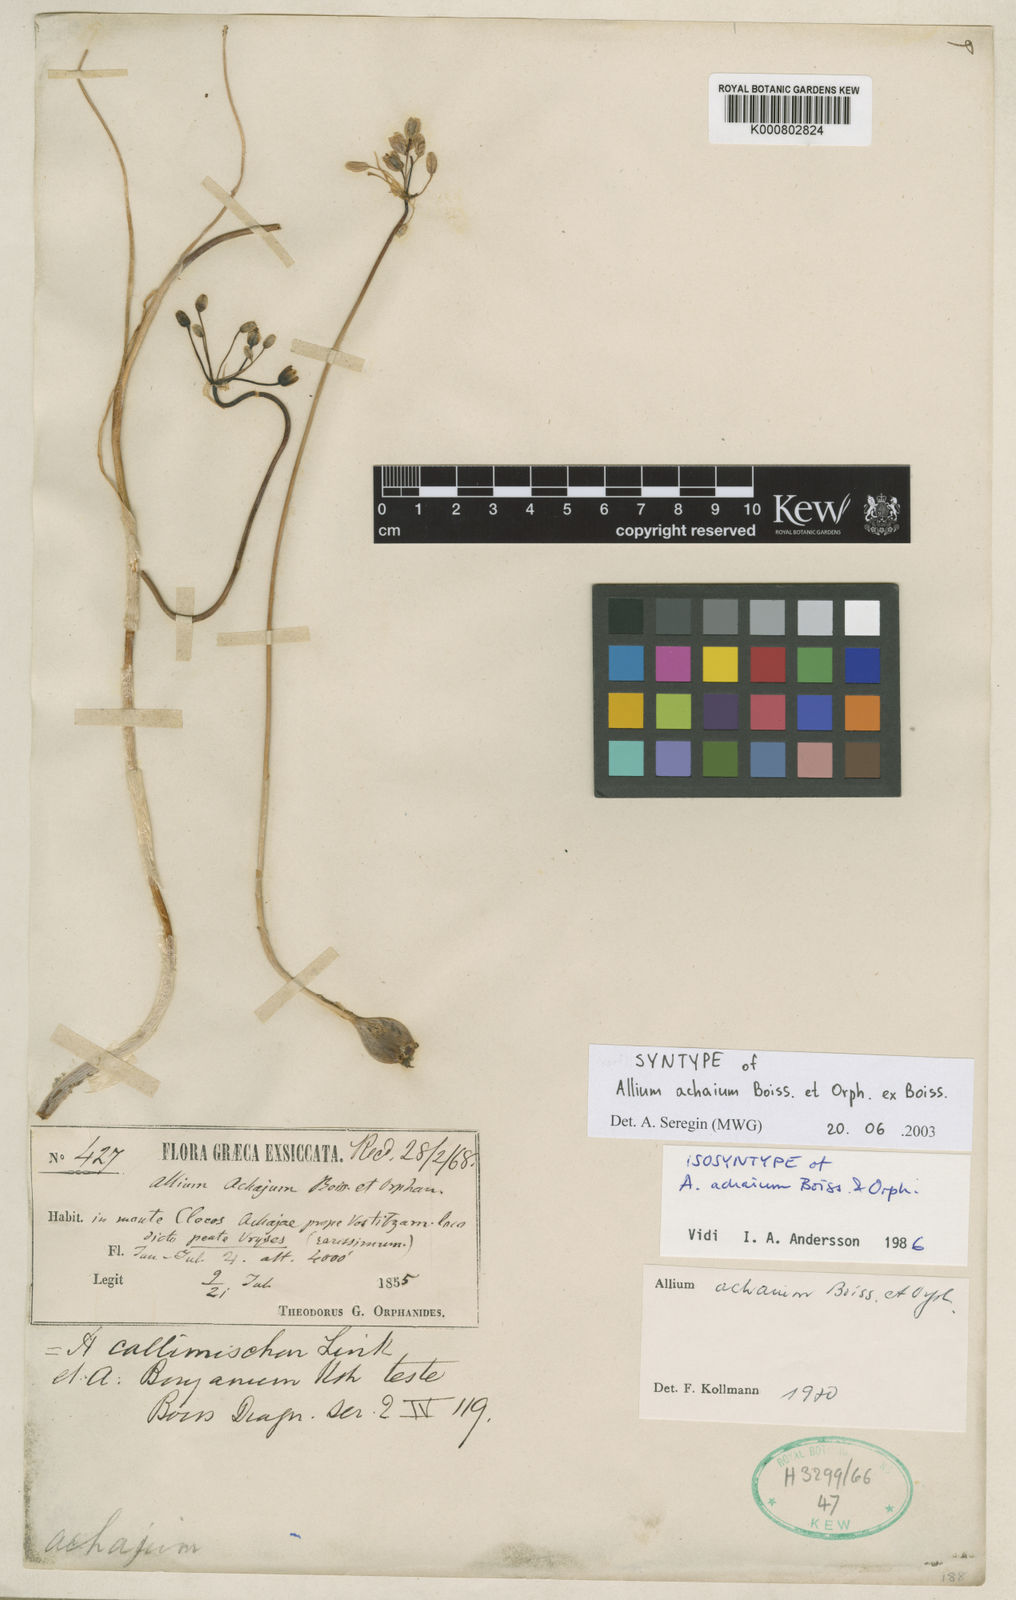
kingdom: Plantae
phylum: Tracheophyta
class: Liliopsida
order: Asparagales
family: Amaryllidaceae
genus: Allium
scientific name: Allium frigidum
